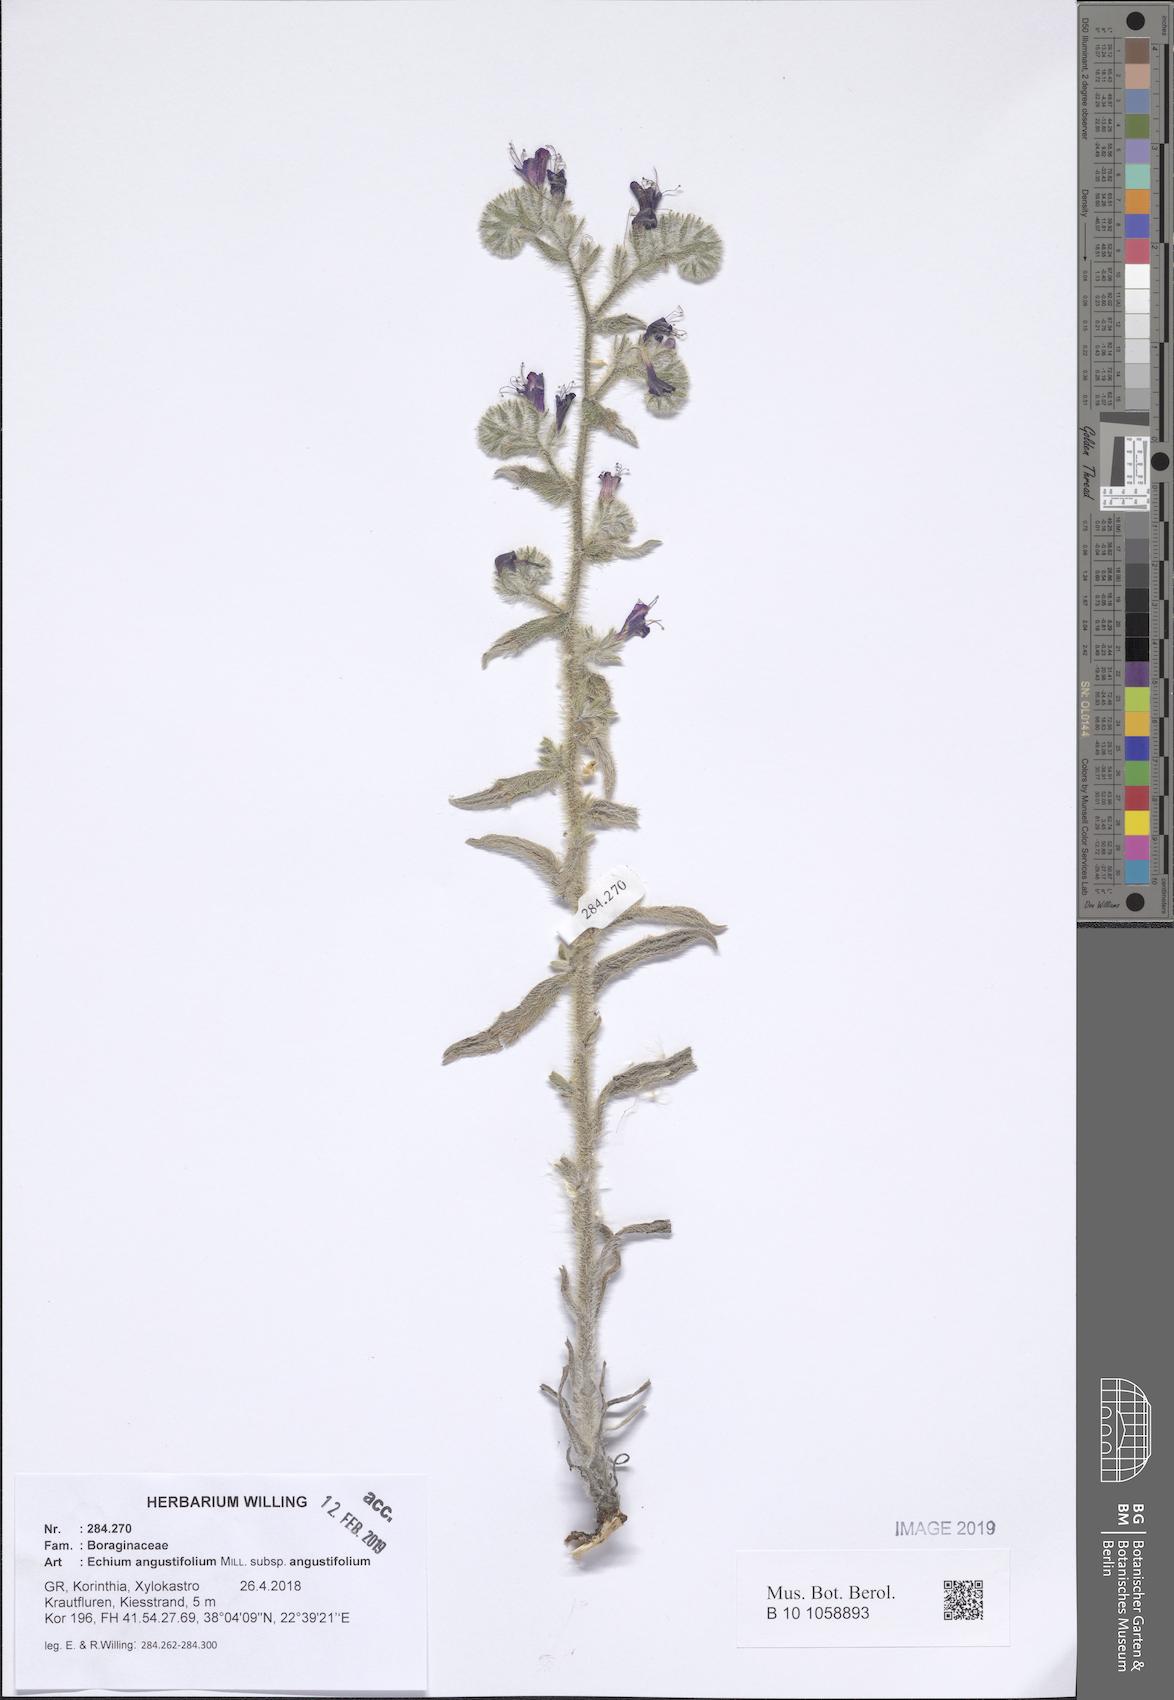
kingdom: Plantae
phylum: Tracheophyta
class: Magnoliopsida
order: Boraginales
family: Boraginaceae
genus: Echium
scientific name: Echium angustifolium
